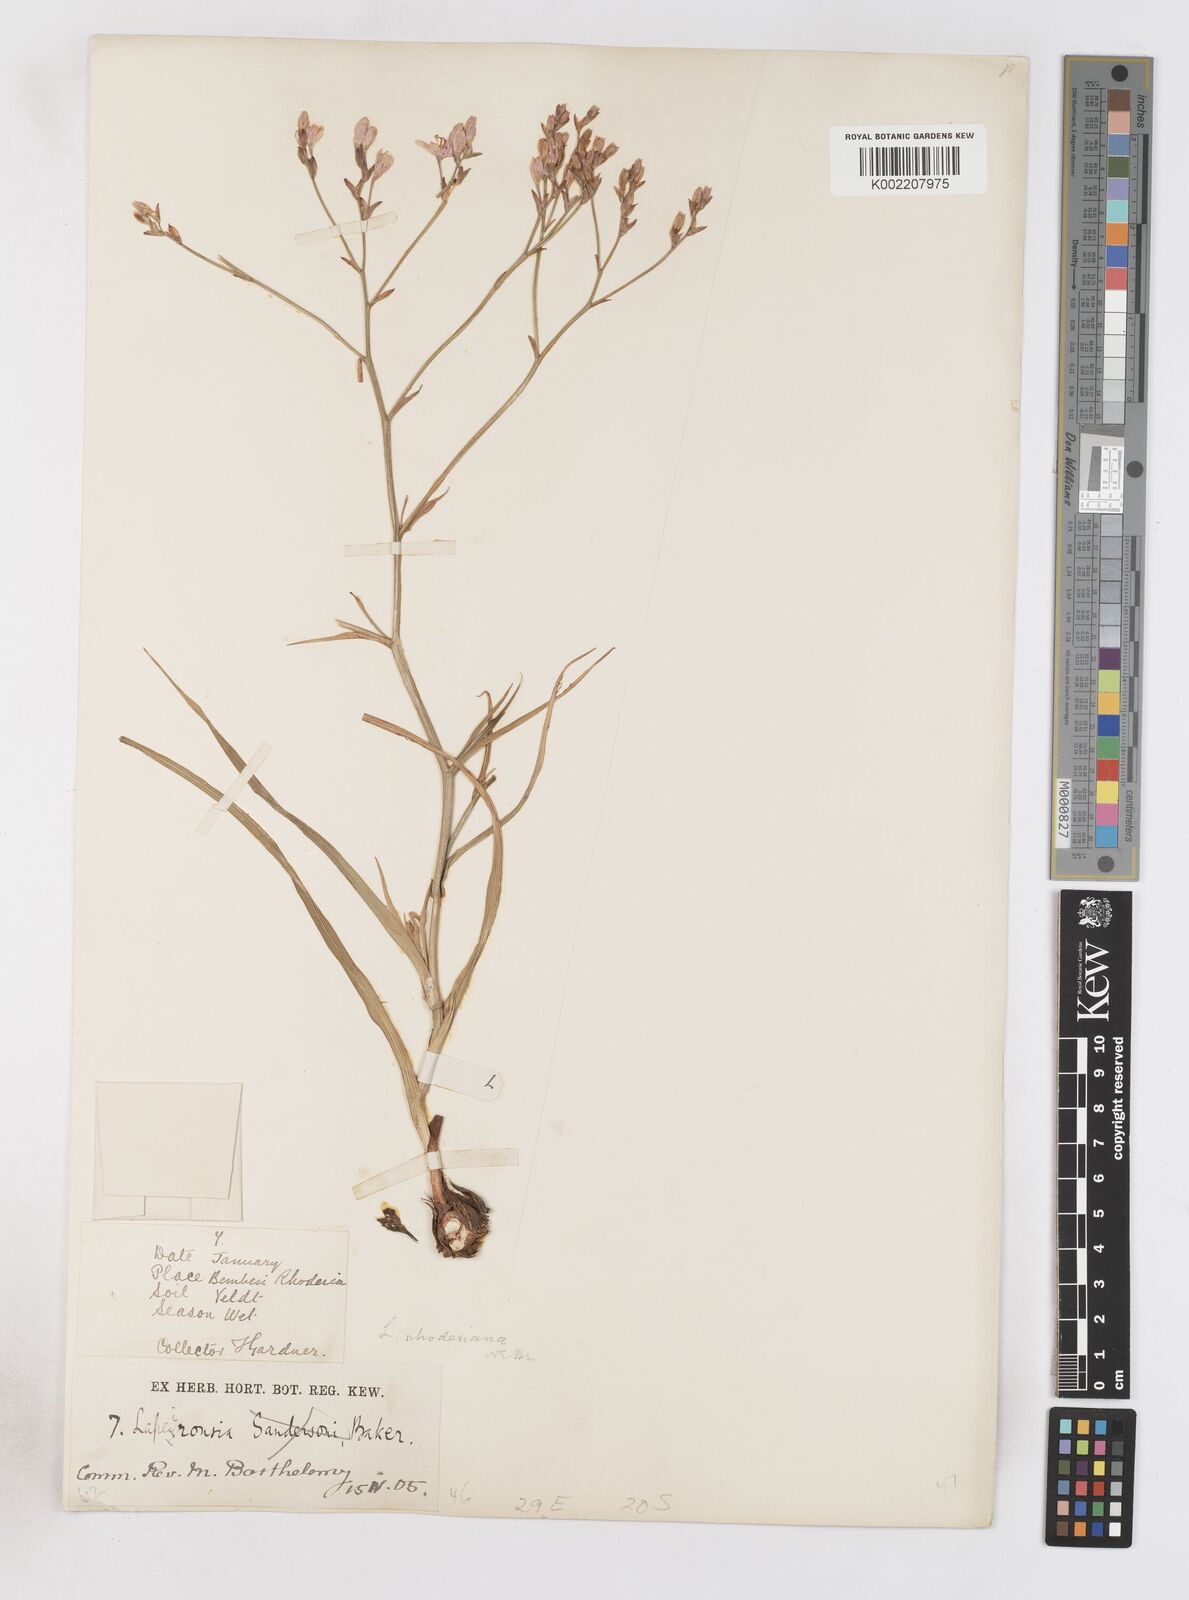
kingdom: Plantae
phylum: Tracheophyta
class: Liliopsida
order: Asparagales
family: Iridaceae
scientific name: Iridaceae
